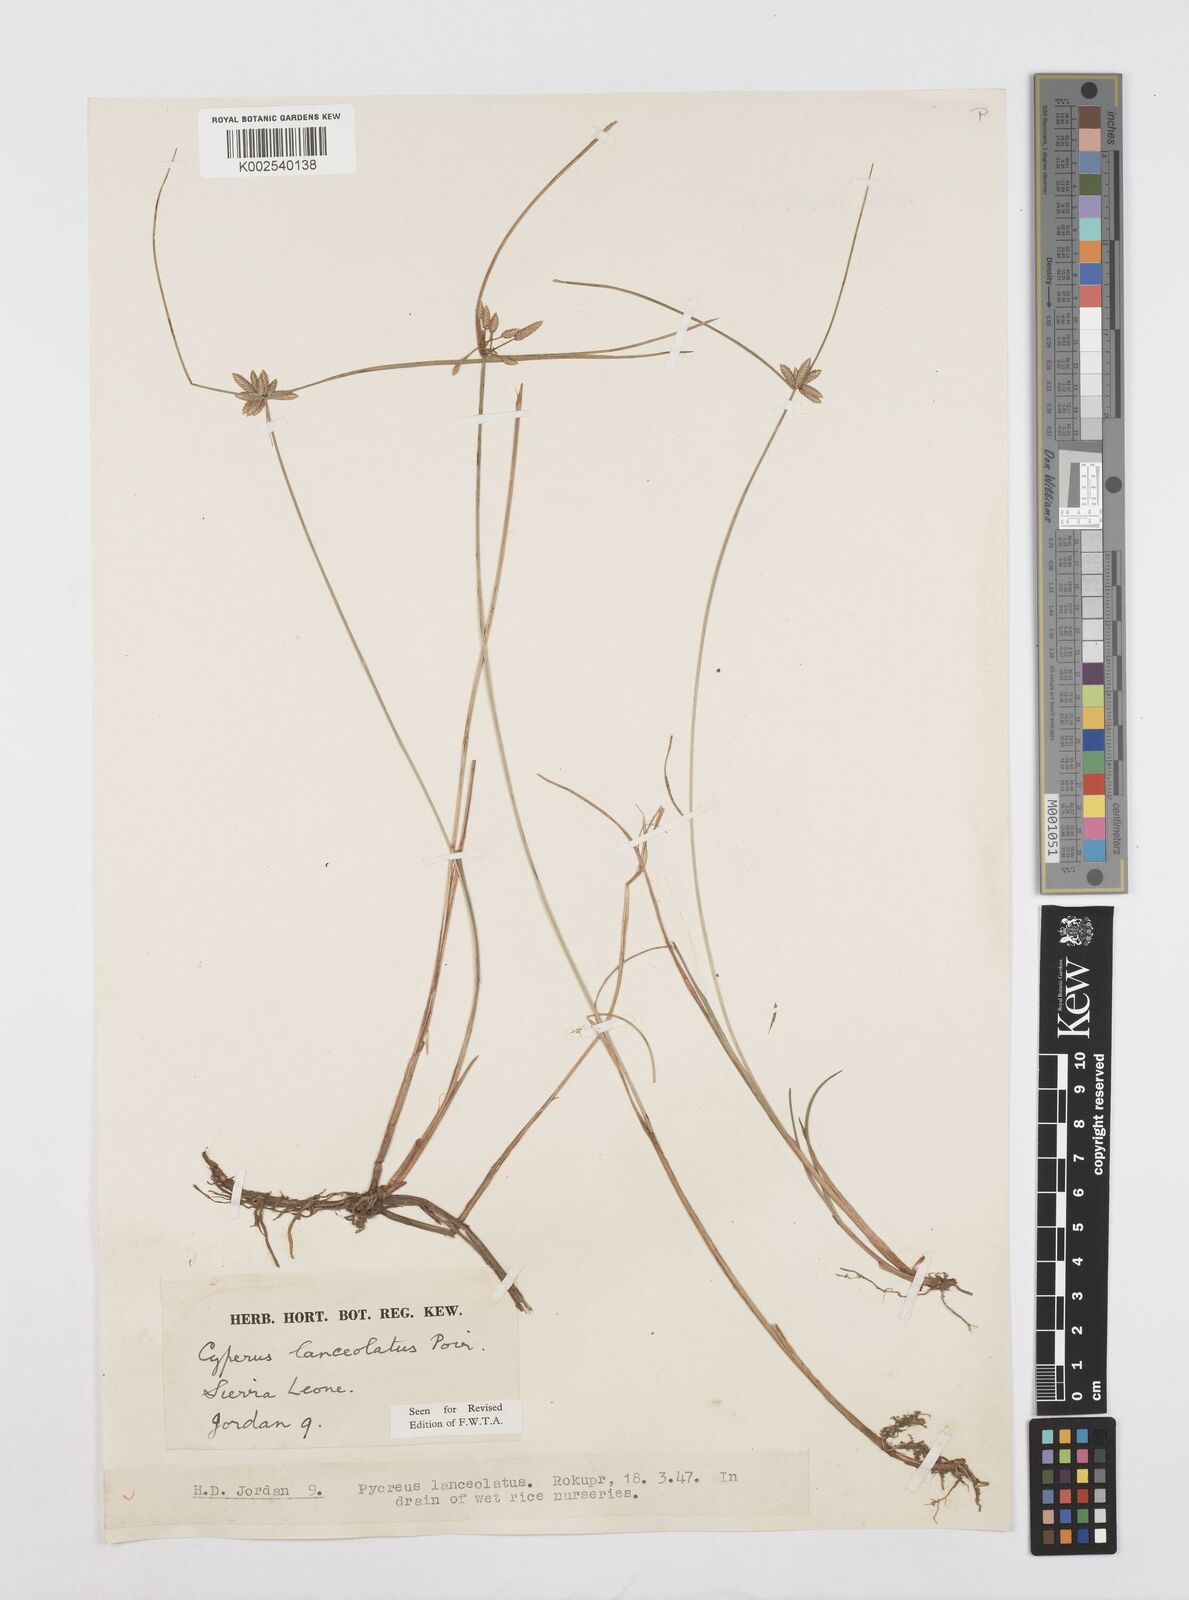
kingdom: Plantae
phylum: Tracheophyta
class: Liliopsida
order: Poales
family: Cyperaceae
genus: Cyperus
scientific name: Cyperus
